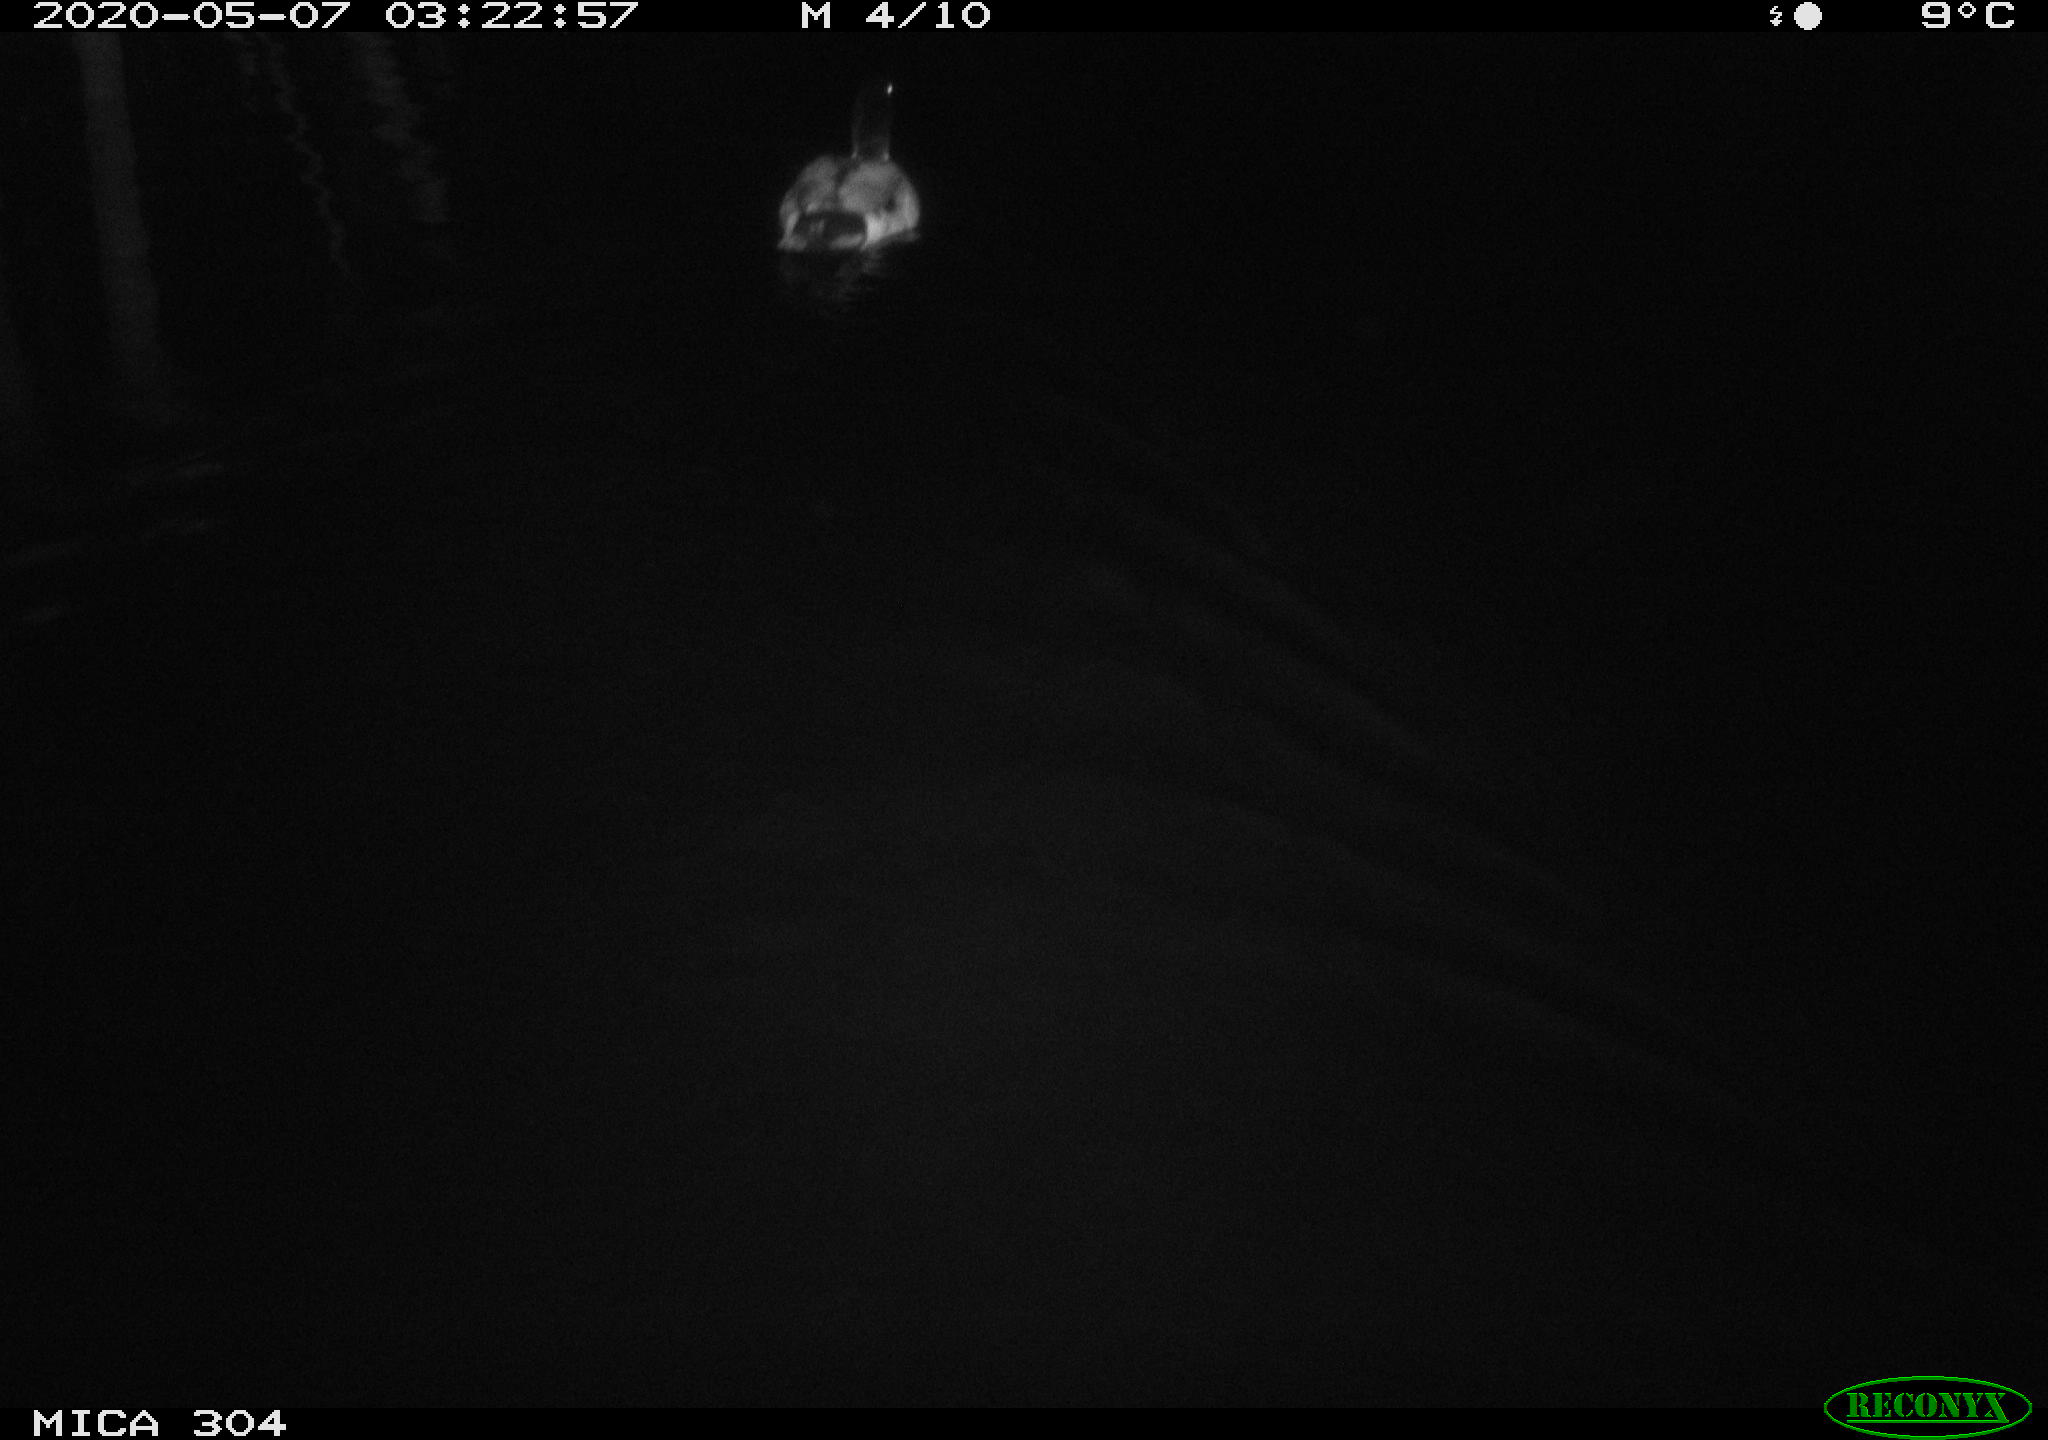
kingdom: Animalia
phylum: Chordata
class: Aves
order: Anseriformes
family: Anatidae
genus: Anas
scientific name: Anas platyrhynchos
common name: Mallard
